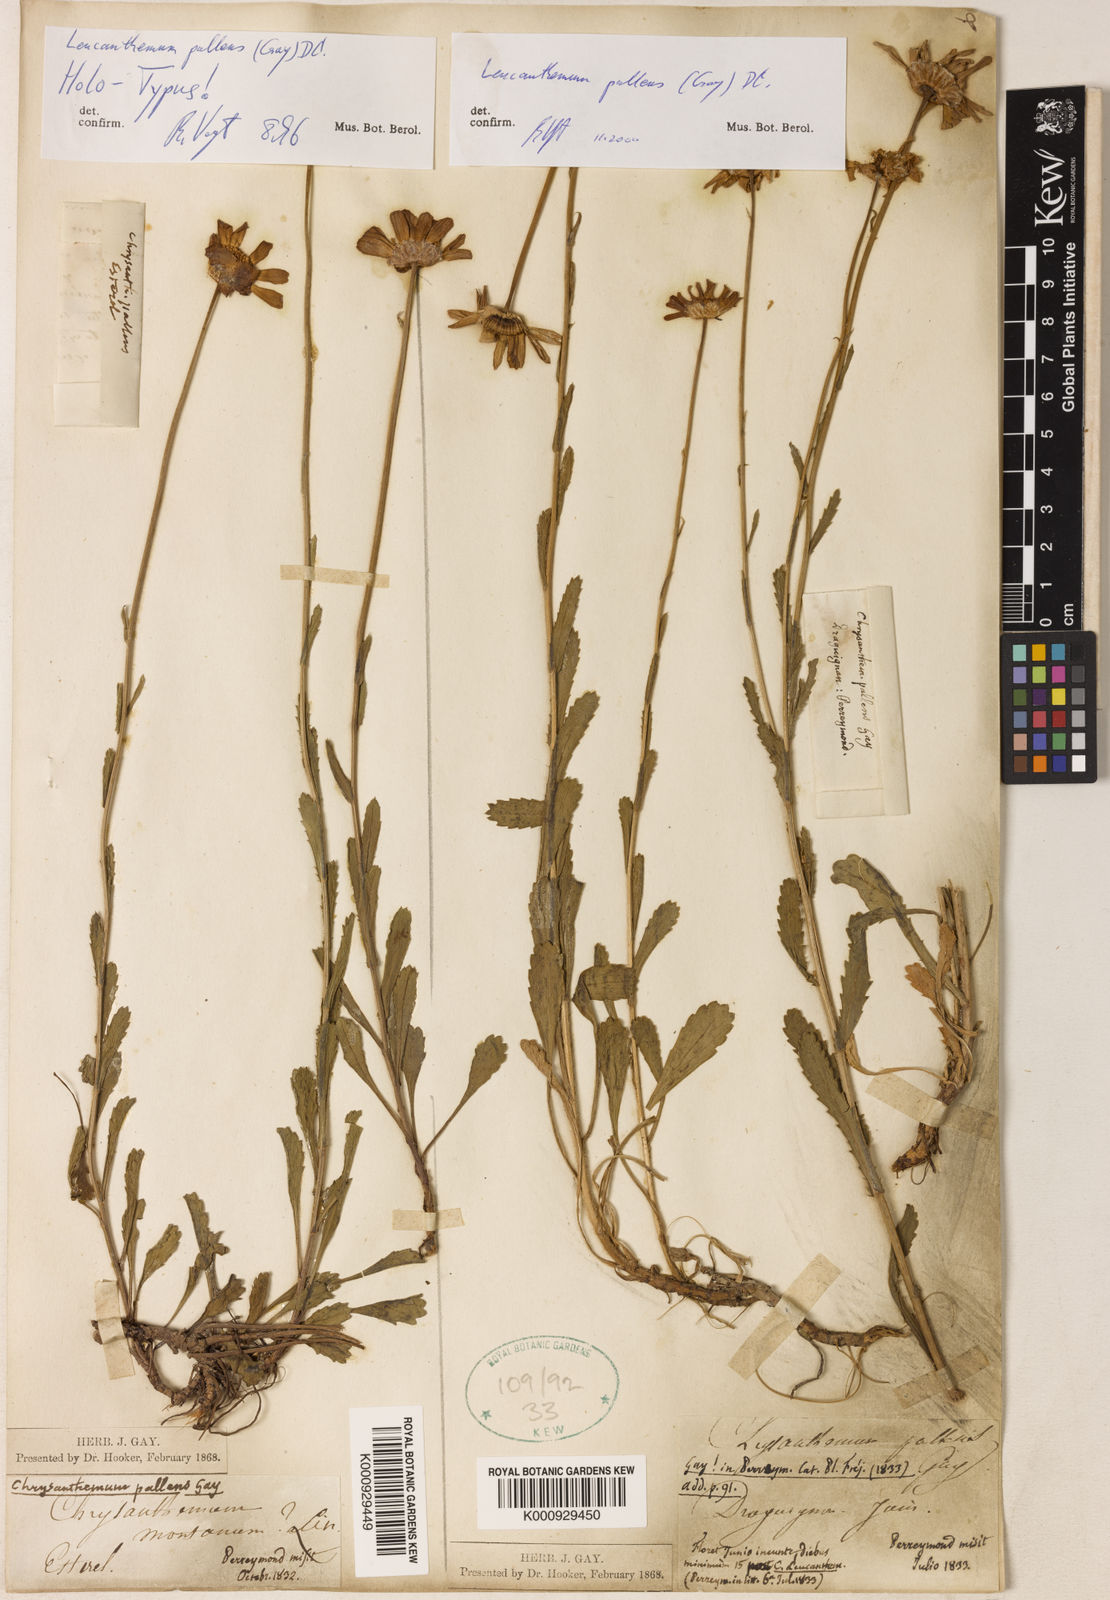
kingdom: Plantae
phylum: Tracheophyta
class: Magnoliopsida
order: Asterales
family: Asteraceae
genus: Leucanthemum
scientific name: Leucanthemum pallens
